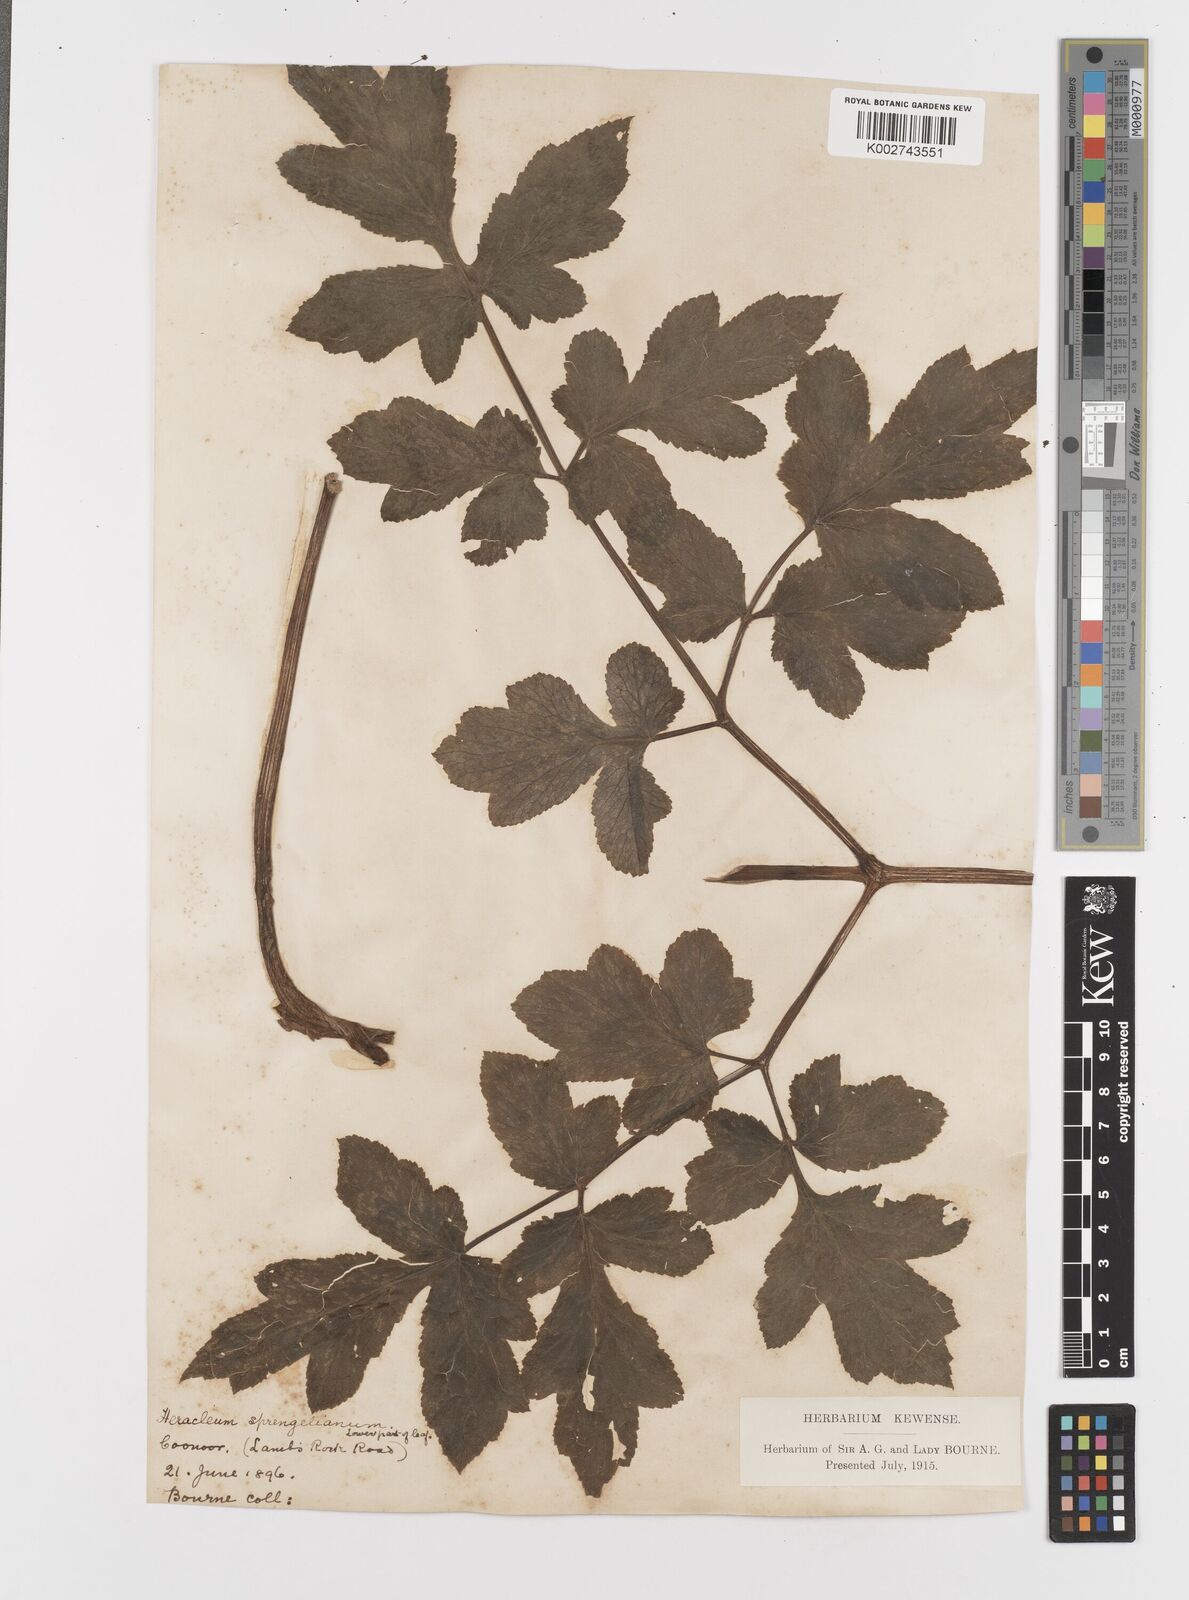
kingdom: Plantae
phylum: Tracheophyta
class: Magnoliopsida
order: Apiales
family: Apiaceae
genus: Tetrataenium
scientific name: Tetrataenium rigens
